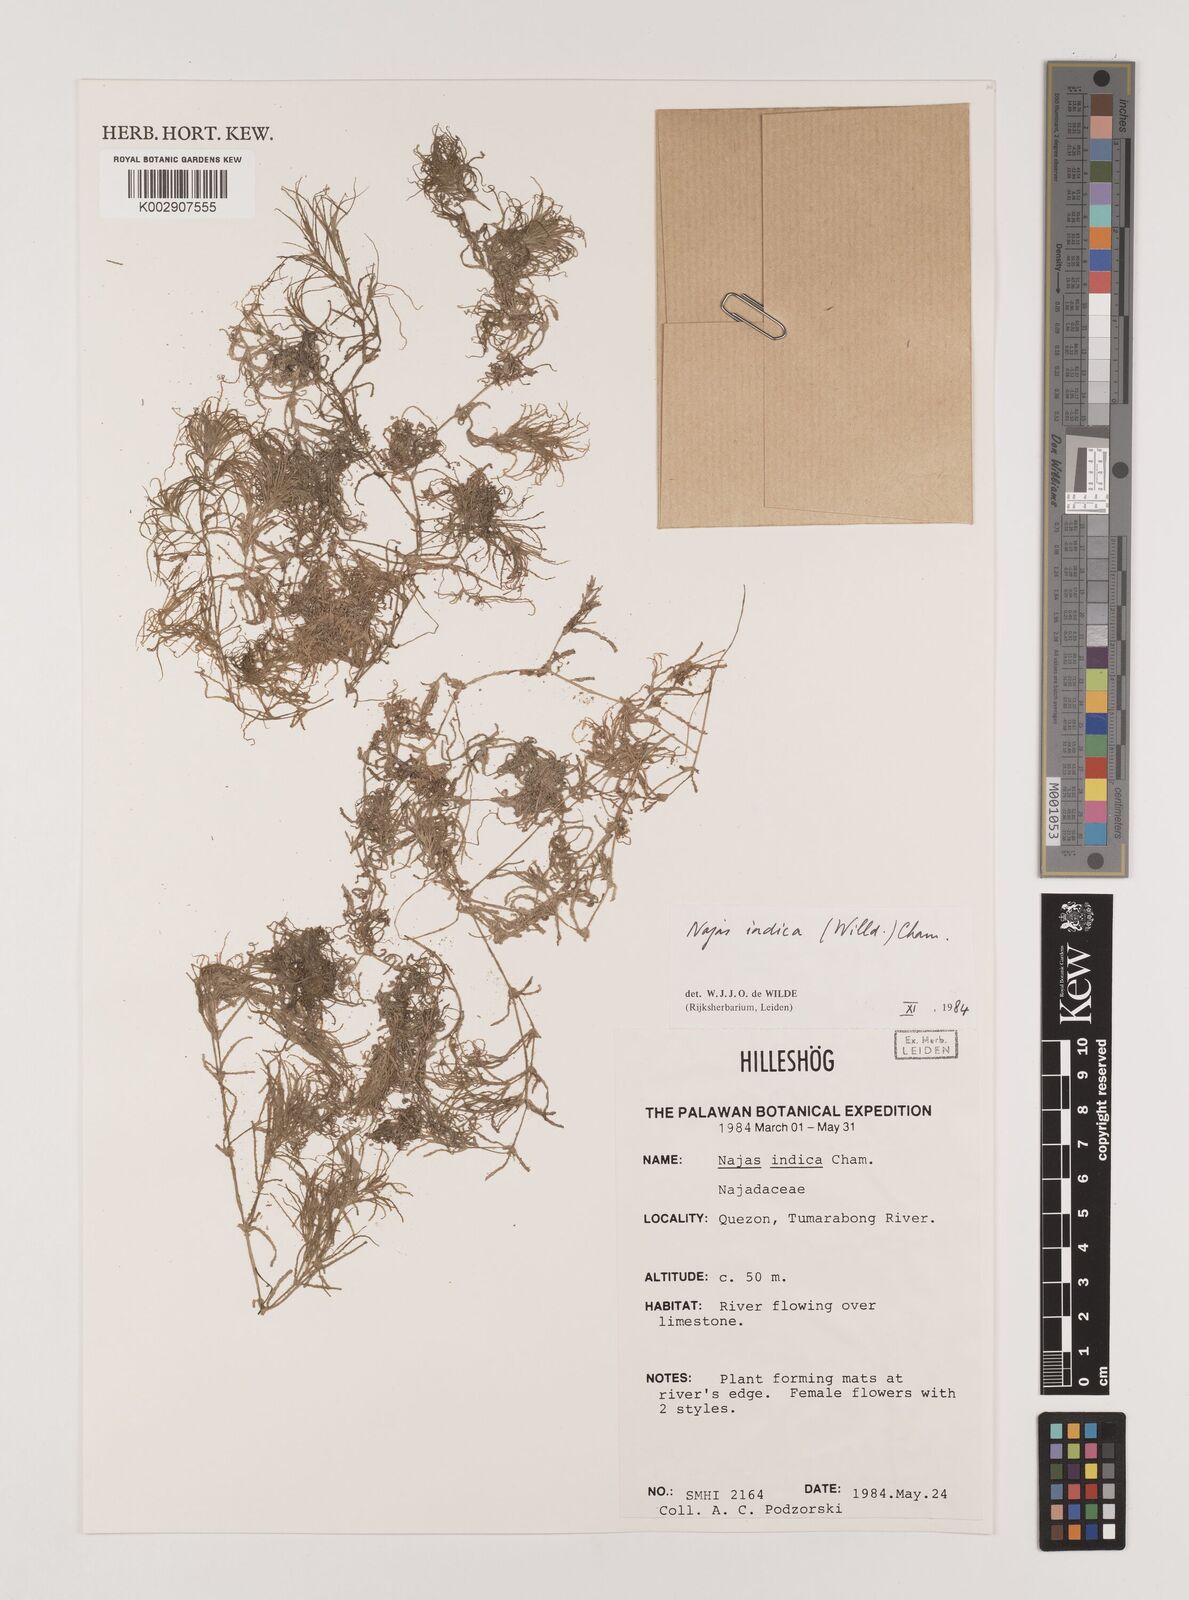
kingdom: Plantae
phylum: Tracheophyta
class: Liliopsida
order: Alismatales
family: Hydrocharitaceae
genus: Najas
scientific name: Najas indica
